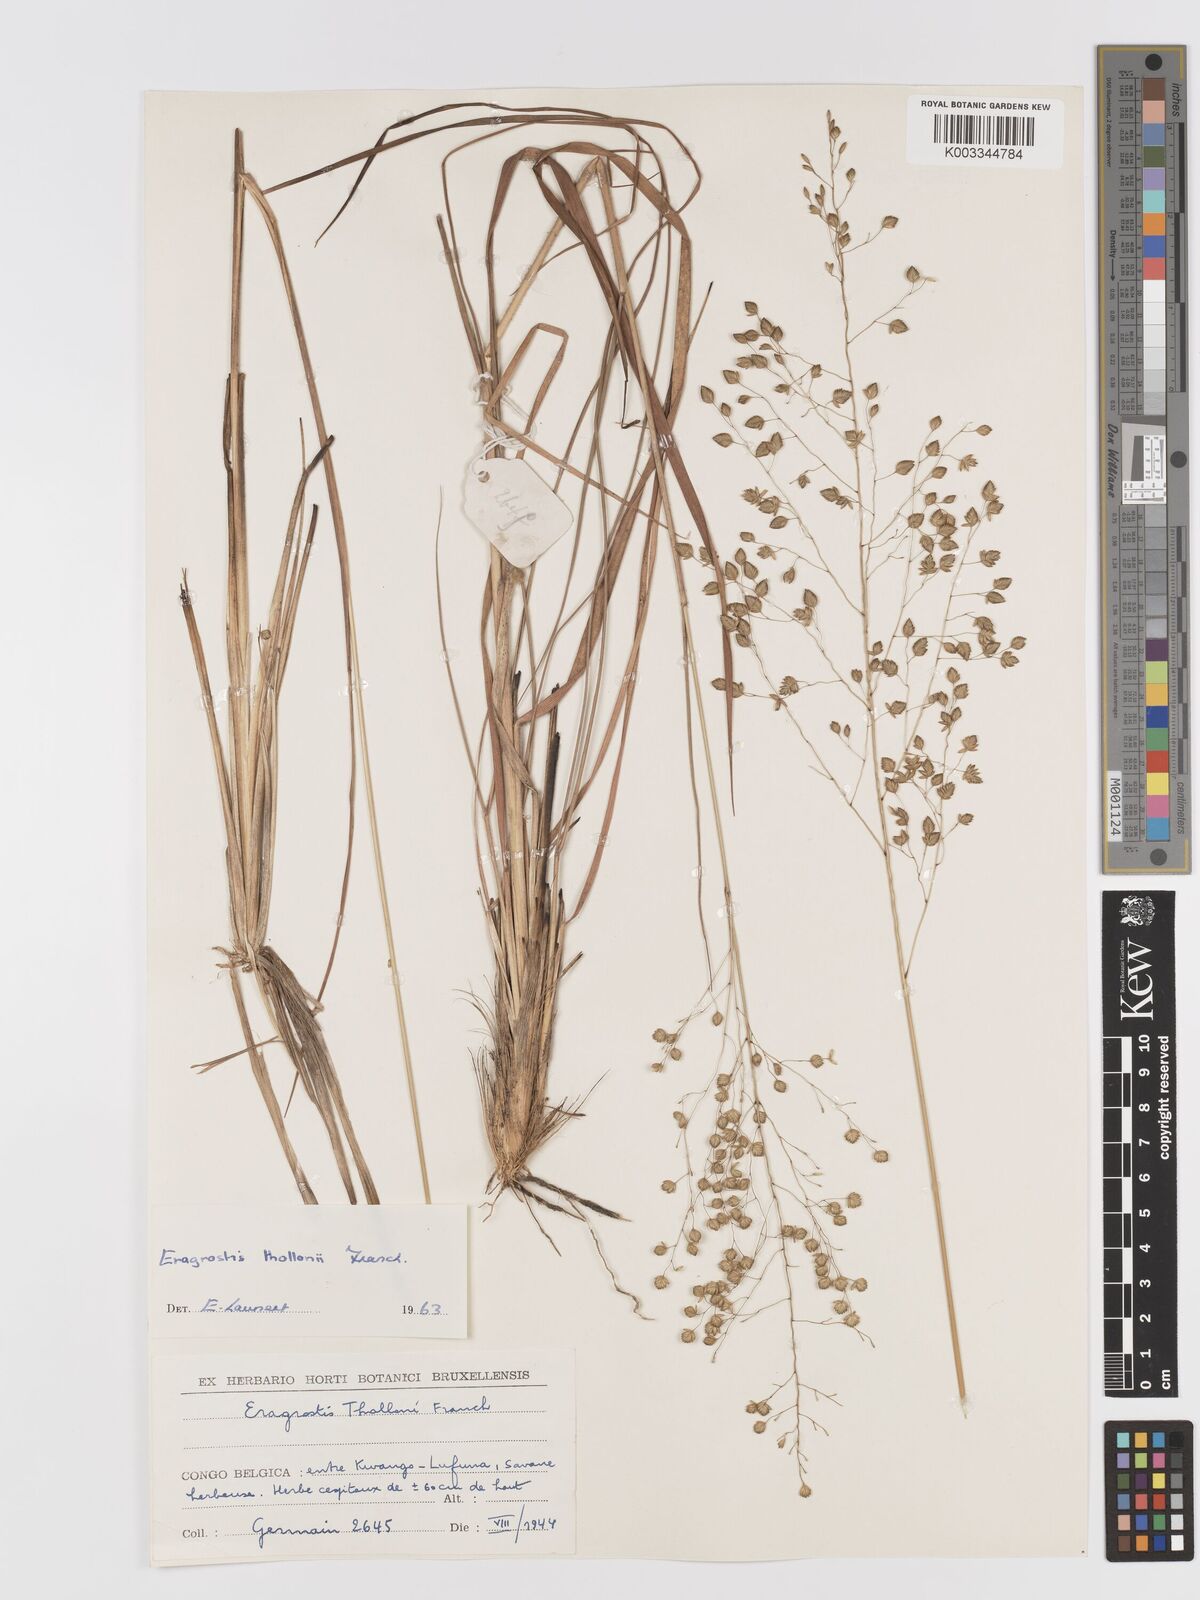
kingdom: Plantae
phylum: Tracheophyta
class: Liliopsida
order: Poales
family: Poaceae
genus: Eragrostis
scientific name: Eragrostis thollonii
